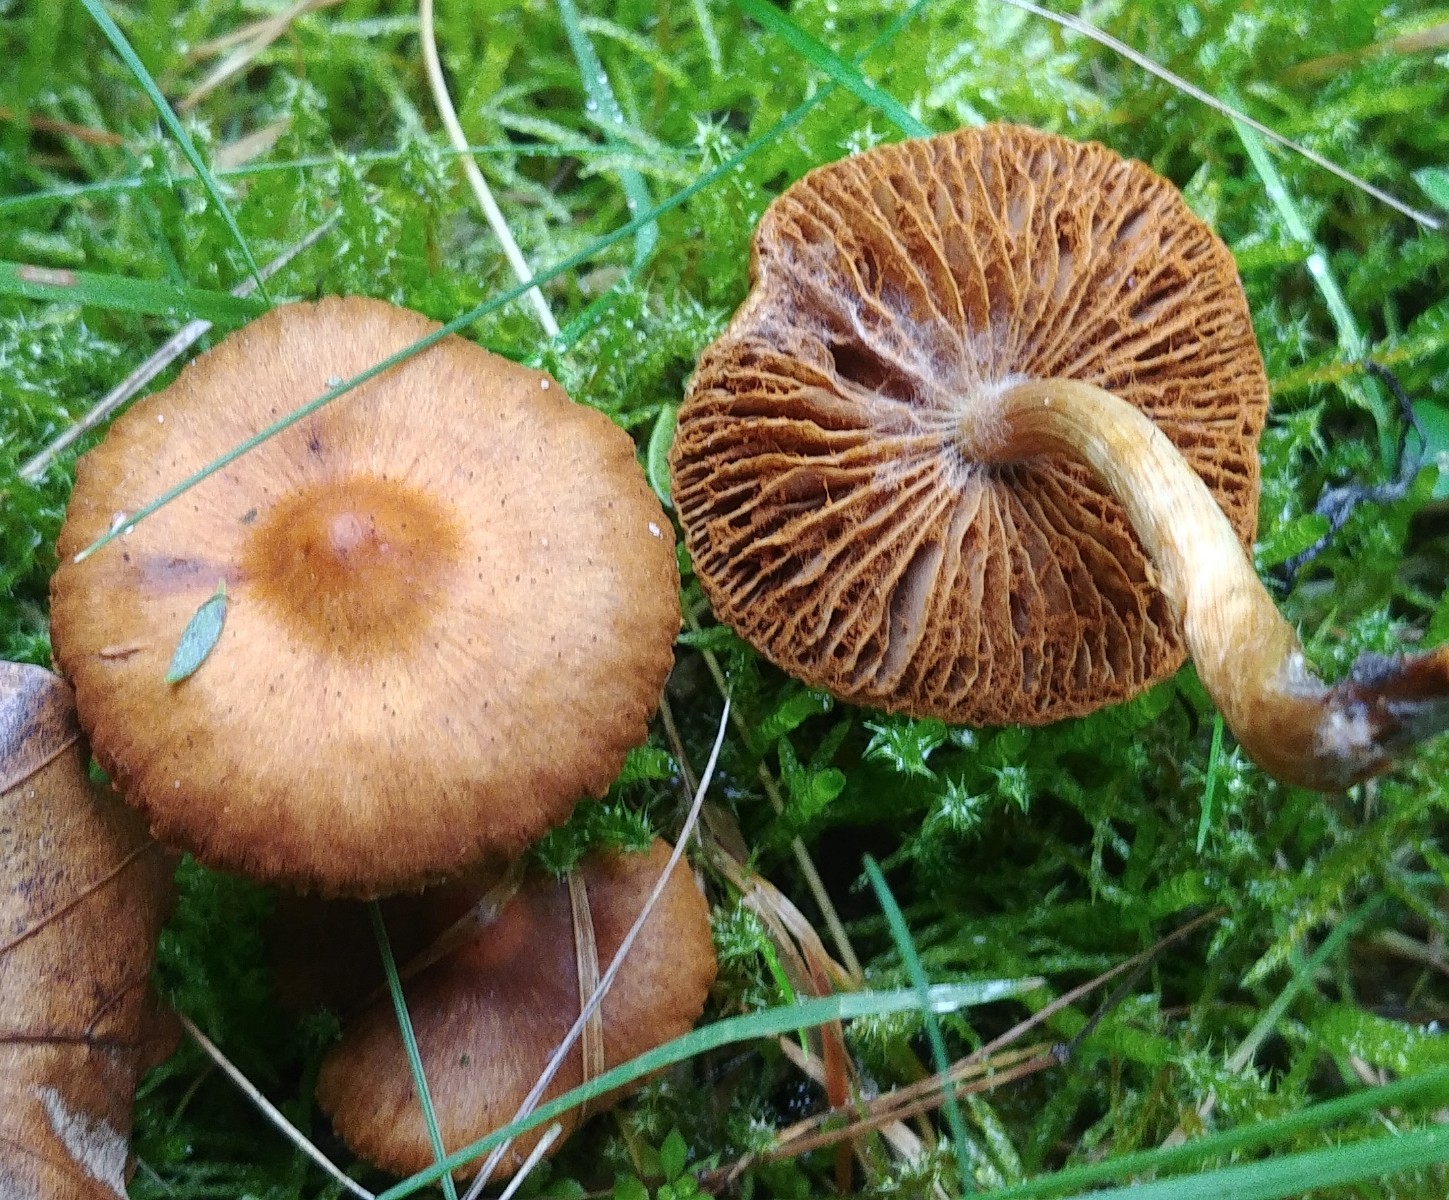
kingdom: Fungi
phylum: Basidiomycota
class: Agaricomycetes
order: Agaricales
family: Cortinariaceae
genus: Cortinarius
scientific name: Cortinarius
